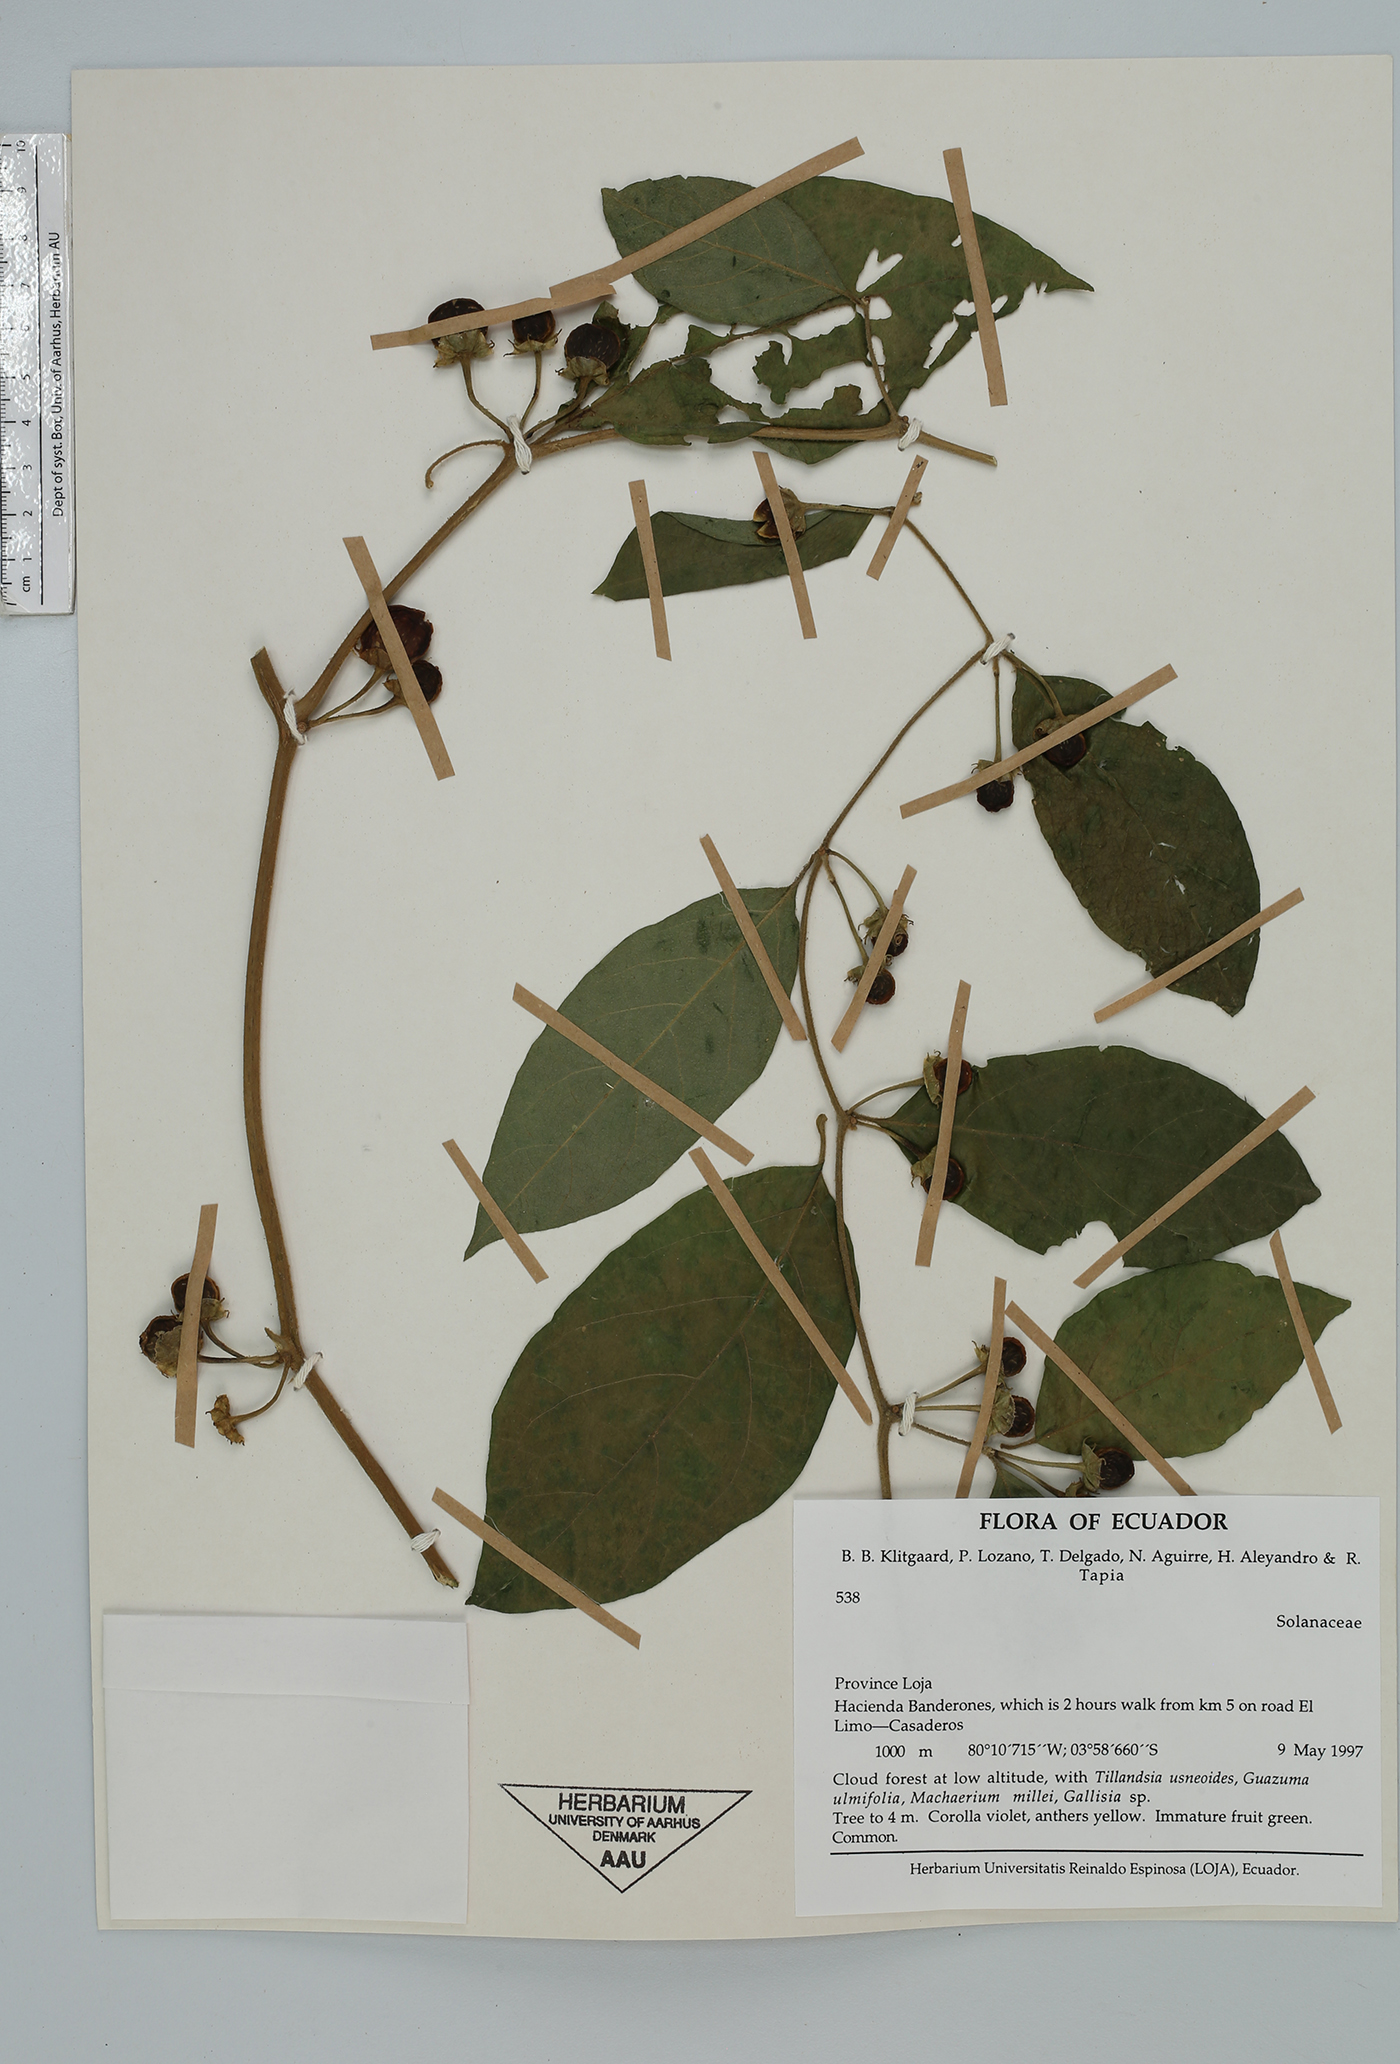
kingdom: Plantae
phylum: Tracheophyta
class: Magnoliopsida
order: Solanales
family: Solanaceae
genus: Lycianthes
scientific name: Lycianthes pauciflora
